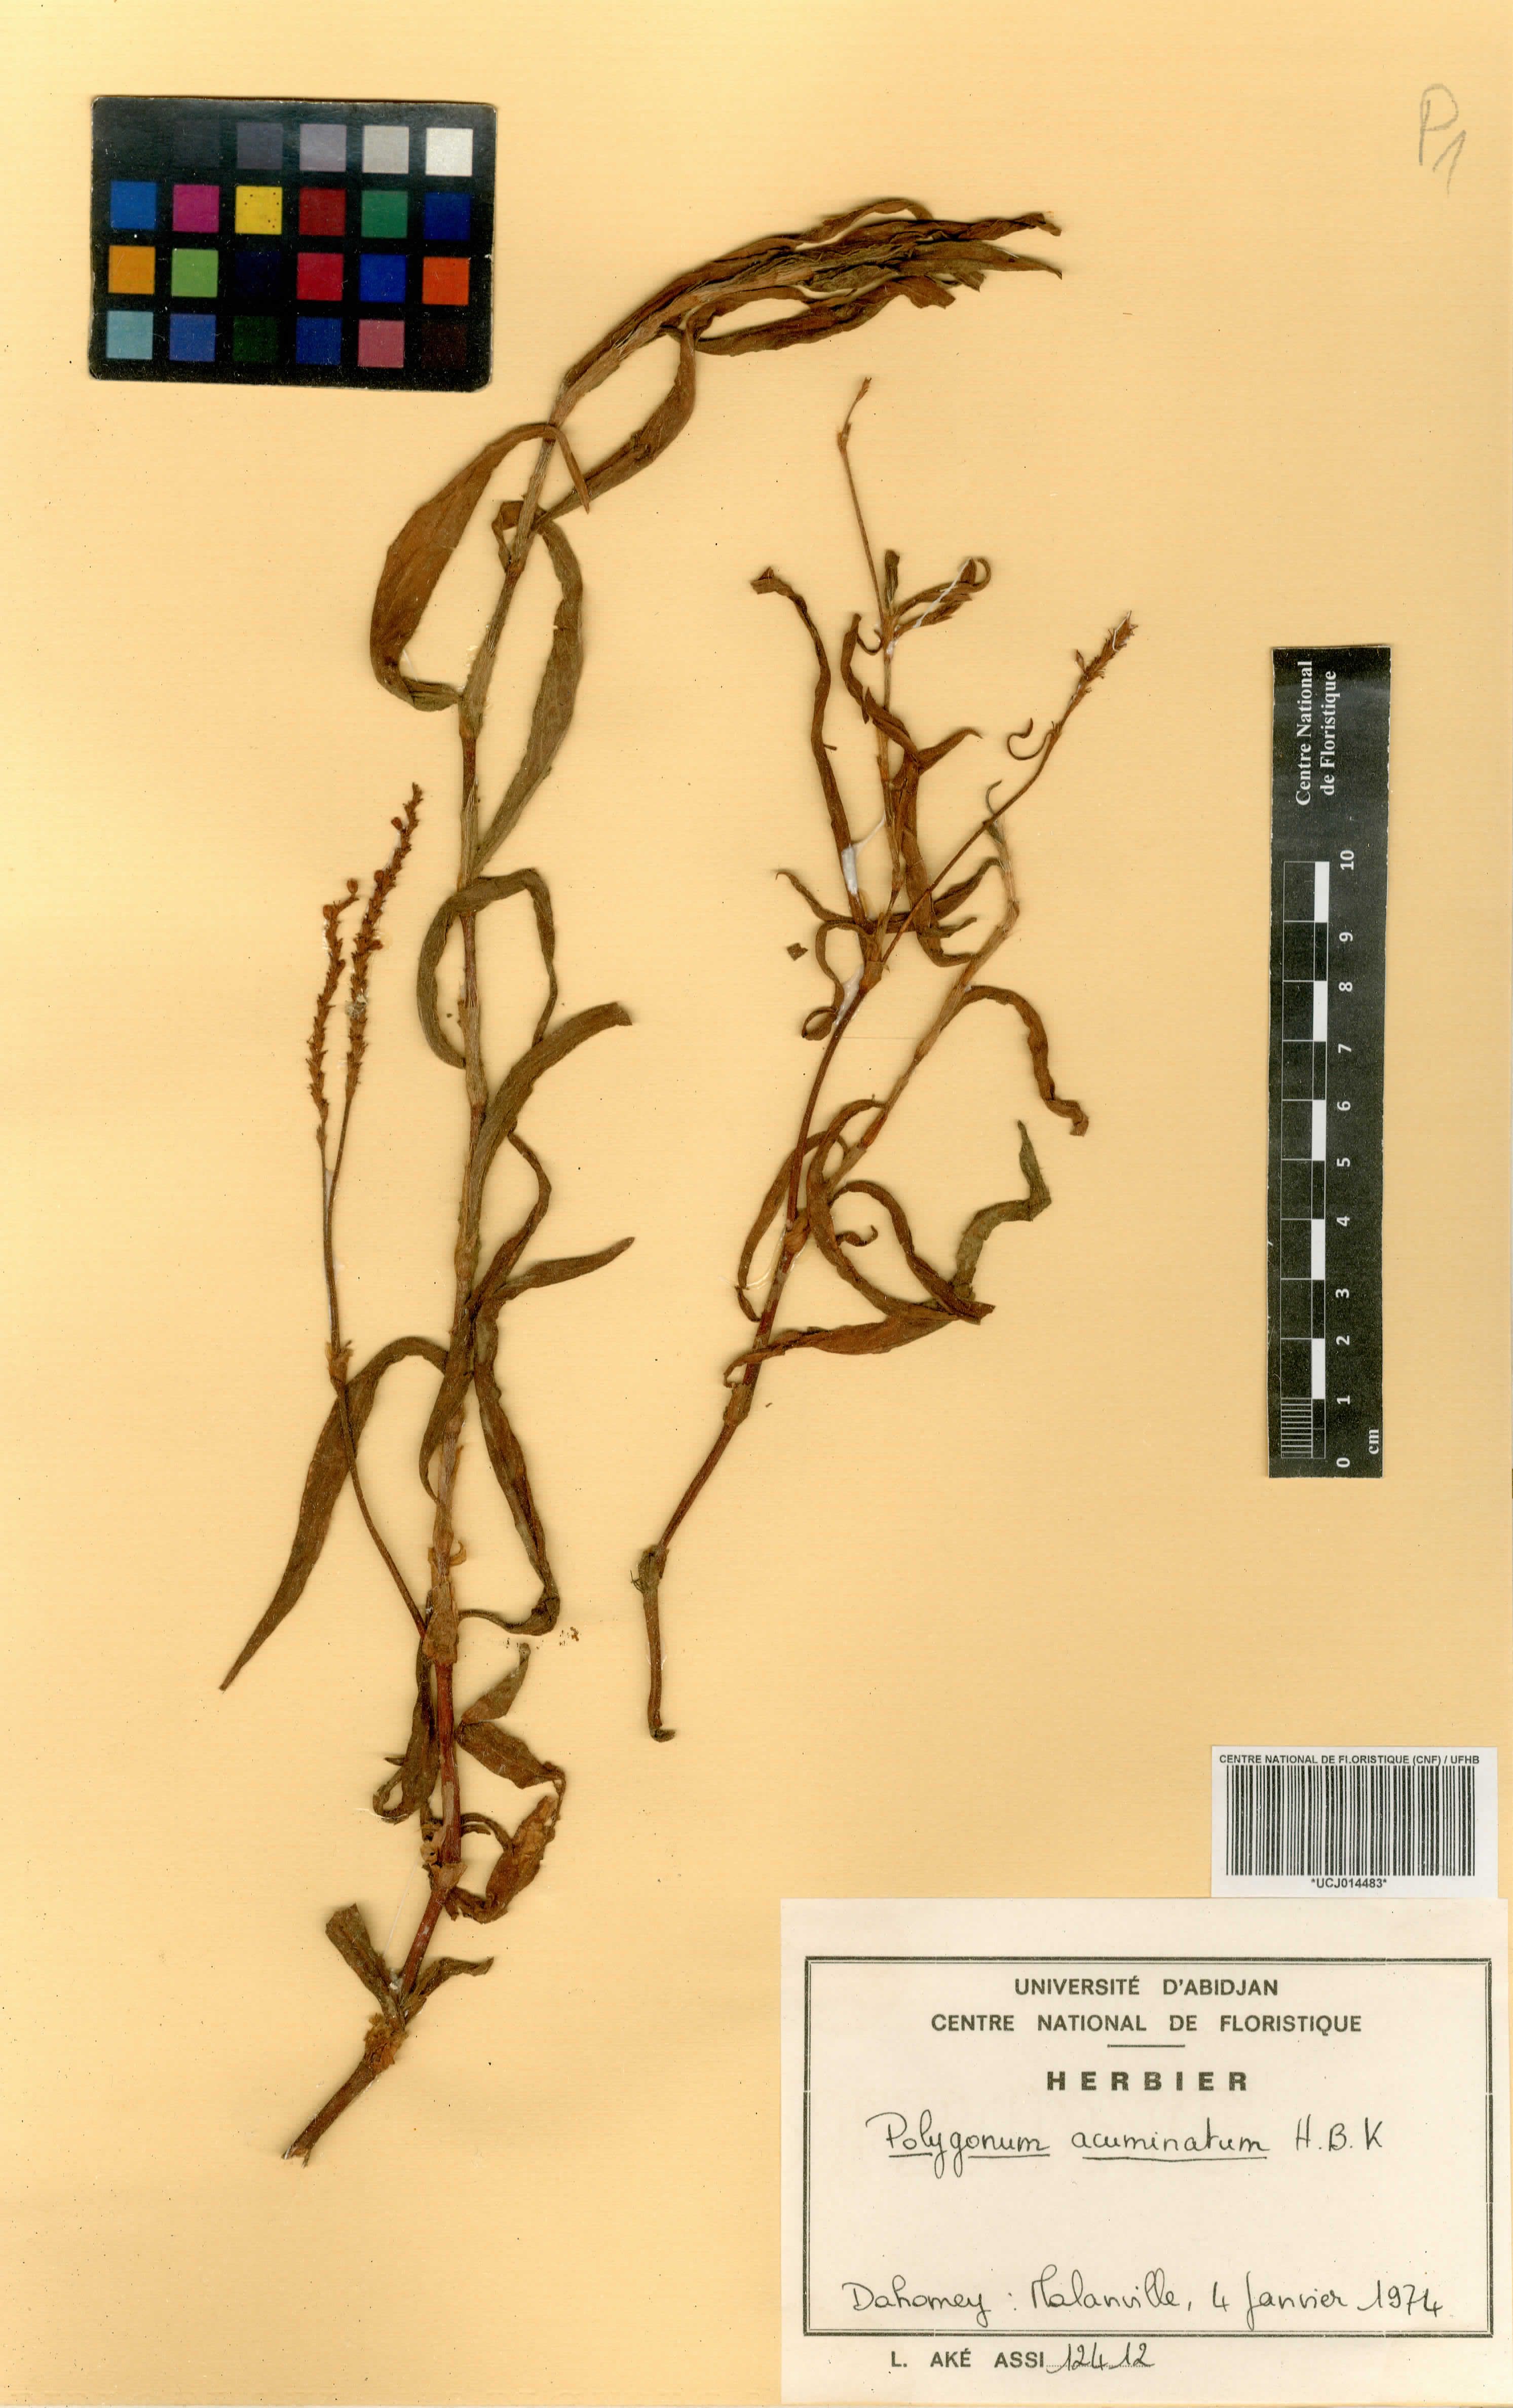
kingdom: Plantae
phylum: Tracheophyta
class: Magnoliopsida
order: Caryophyllales
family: Polygonaceae
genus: Persicaria
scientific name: Persicaria acuminata
